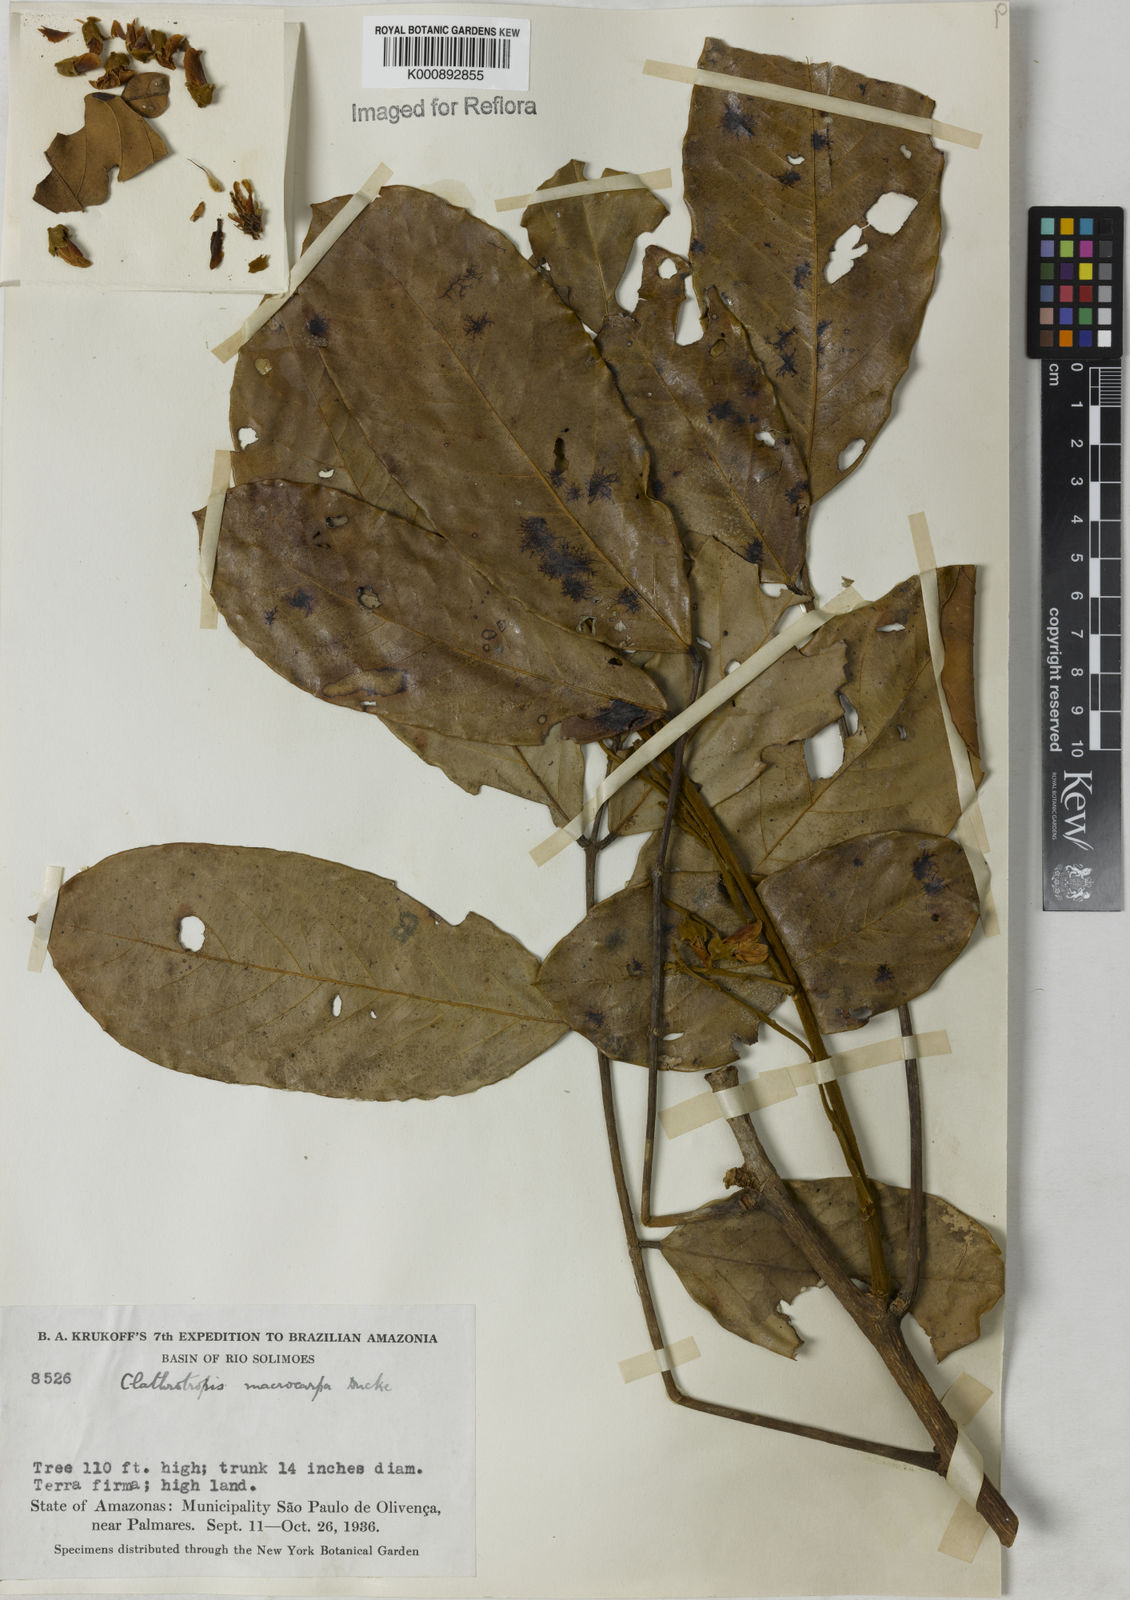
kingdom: Plantae
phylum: Tracheophyta
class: Magnoliopsida
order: Fabales
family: Fabaceae
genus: Clathrotropis
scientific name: Clathrotropis macrocarpa
